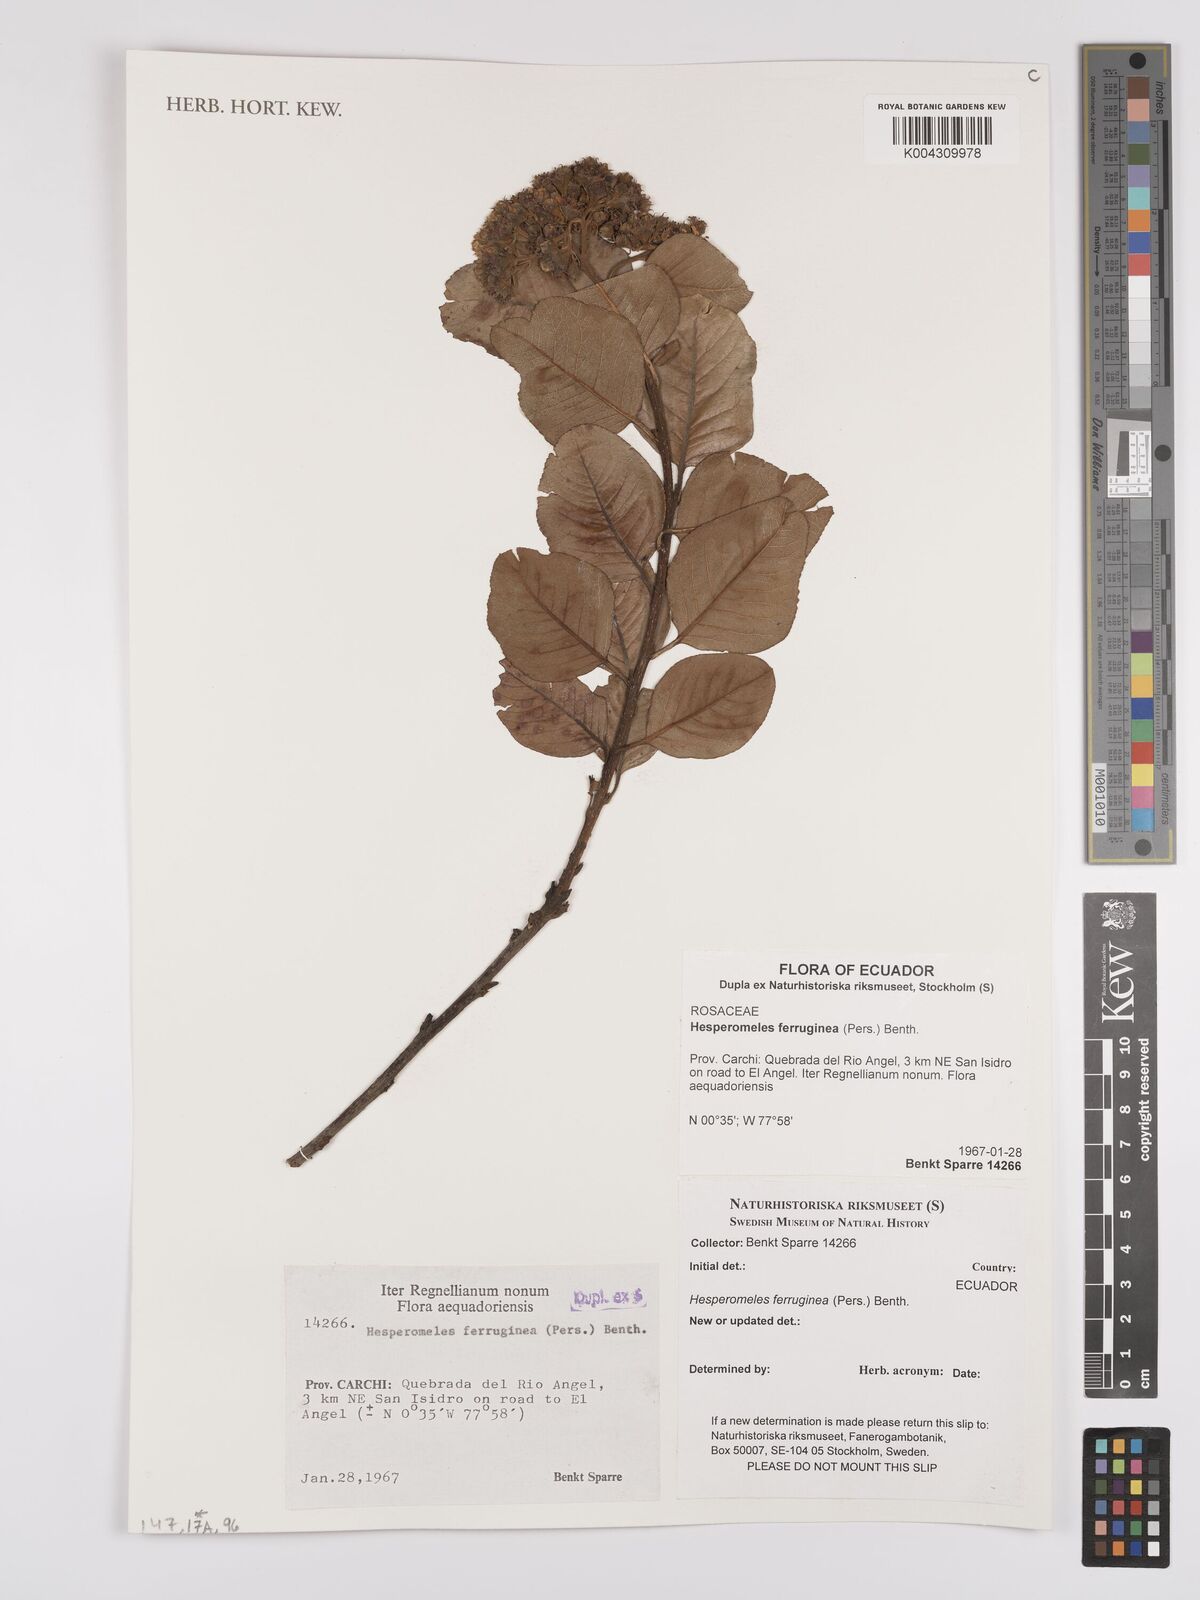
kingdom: Plantae
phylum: Tracheophyta
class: Magnoliopsida
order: Rosales
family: Rosaceae
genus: Hesperomeles
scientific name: Hesperomeles ferruginea
